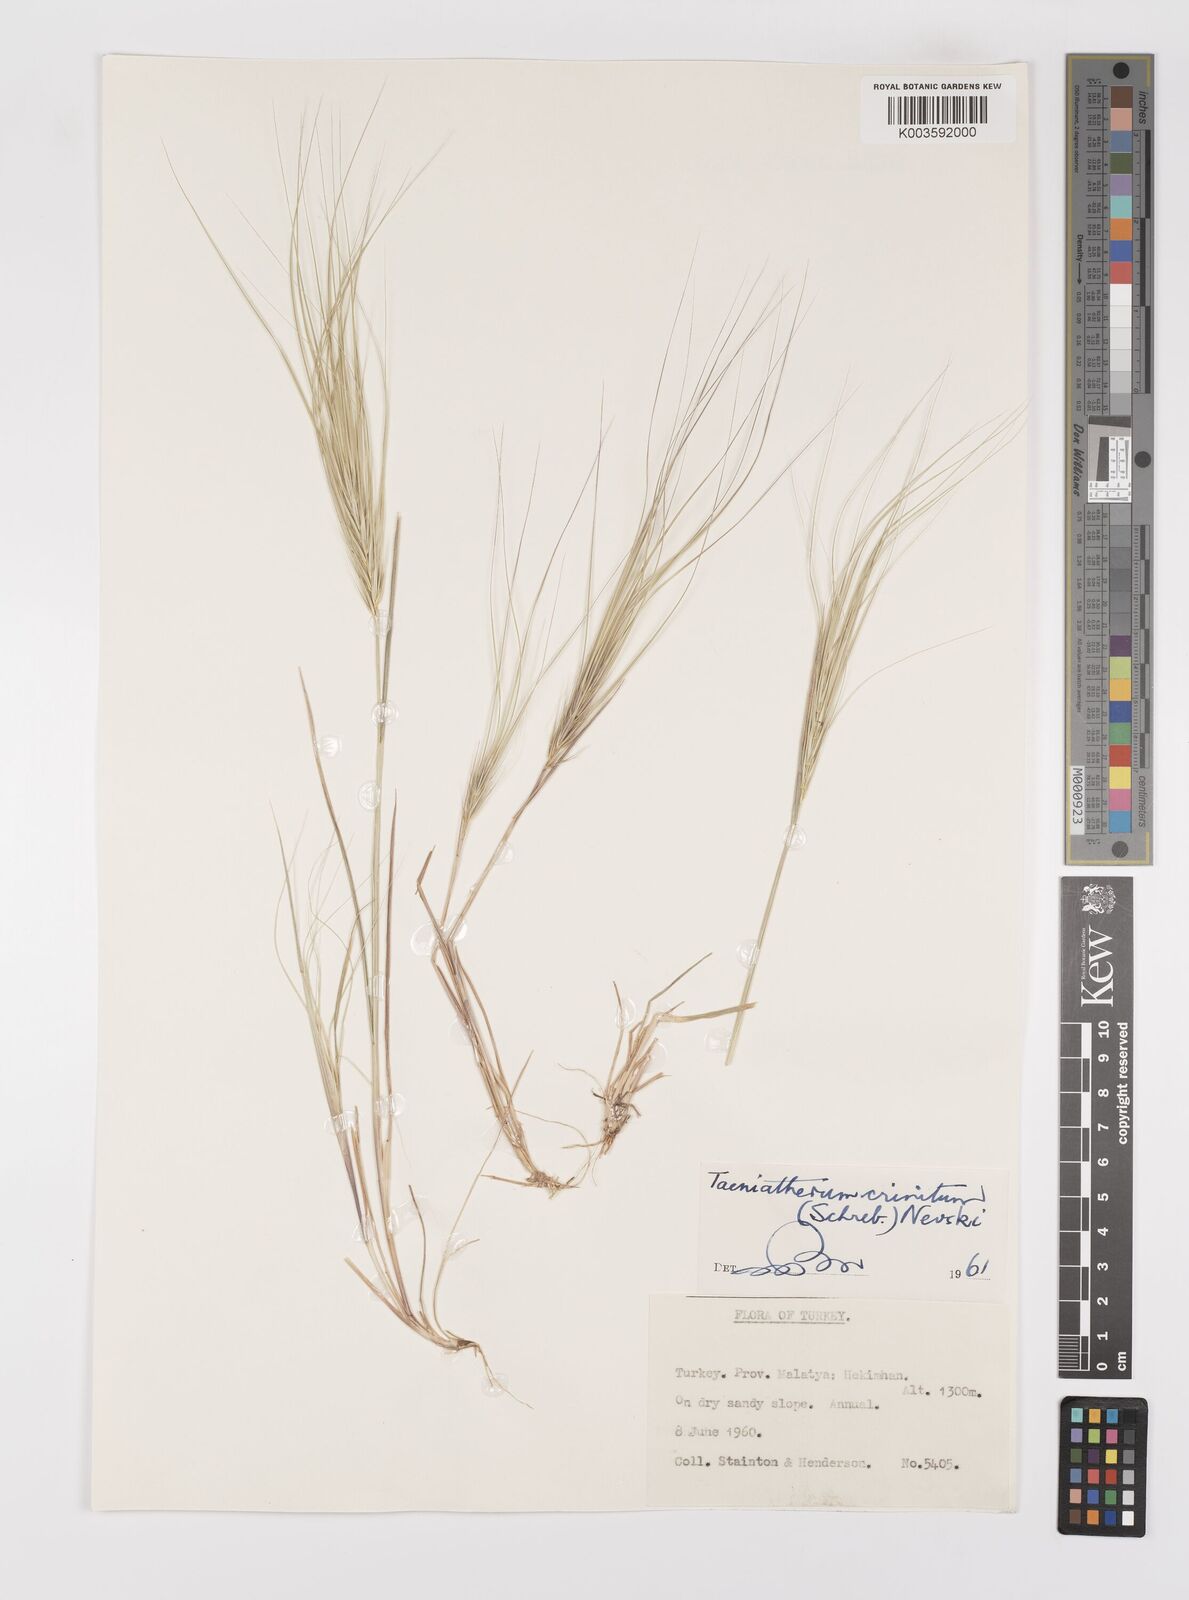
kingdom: Plantae
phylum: Tracheophyta
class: Liliopsida
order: Poales
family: Poaceae
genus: Taeniatherum
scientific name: Taeniatherum caput-medusae
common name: Medusahead
